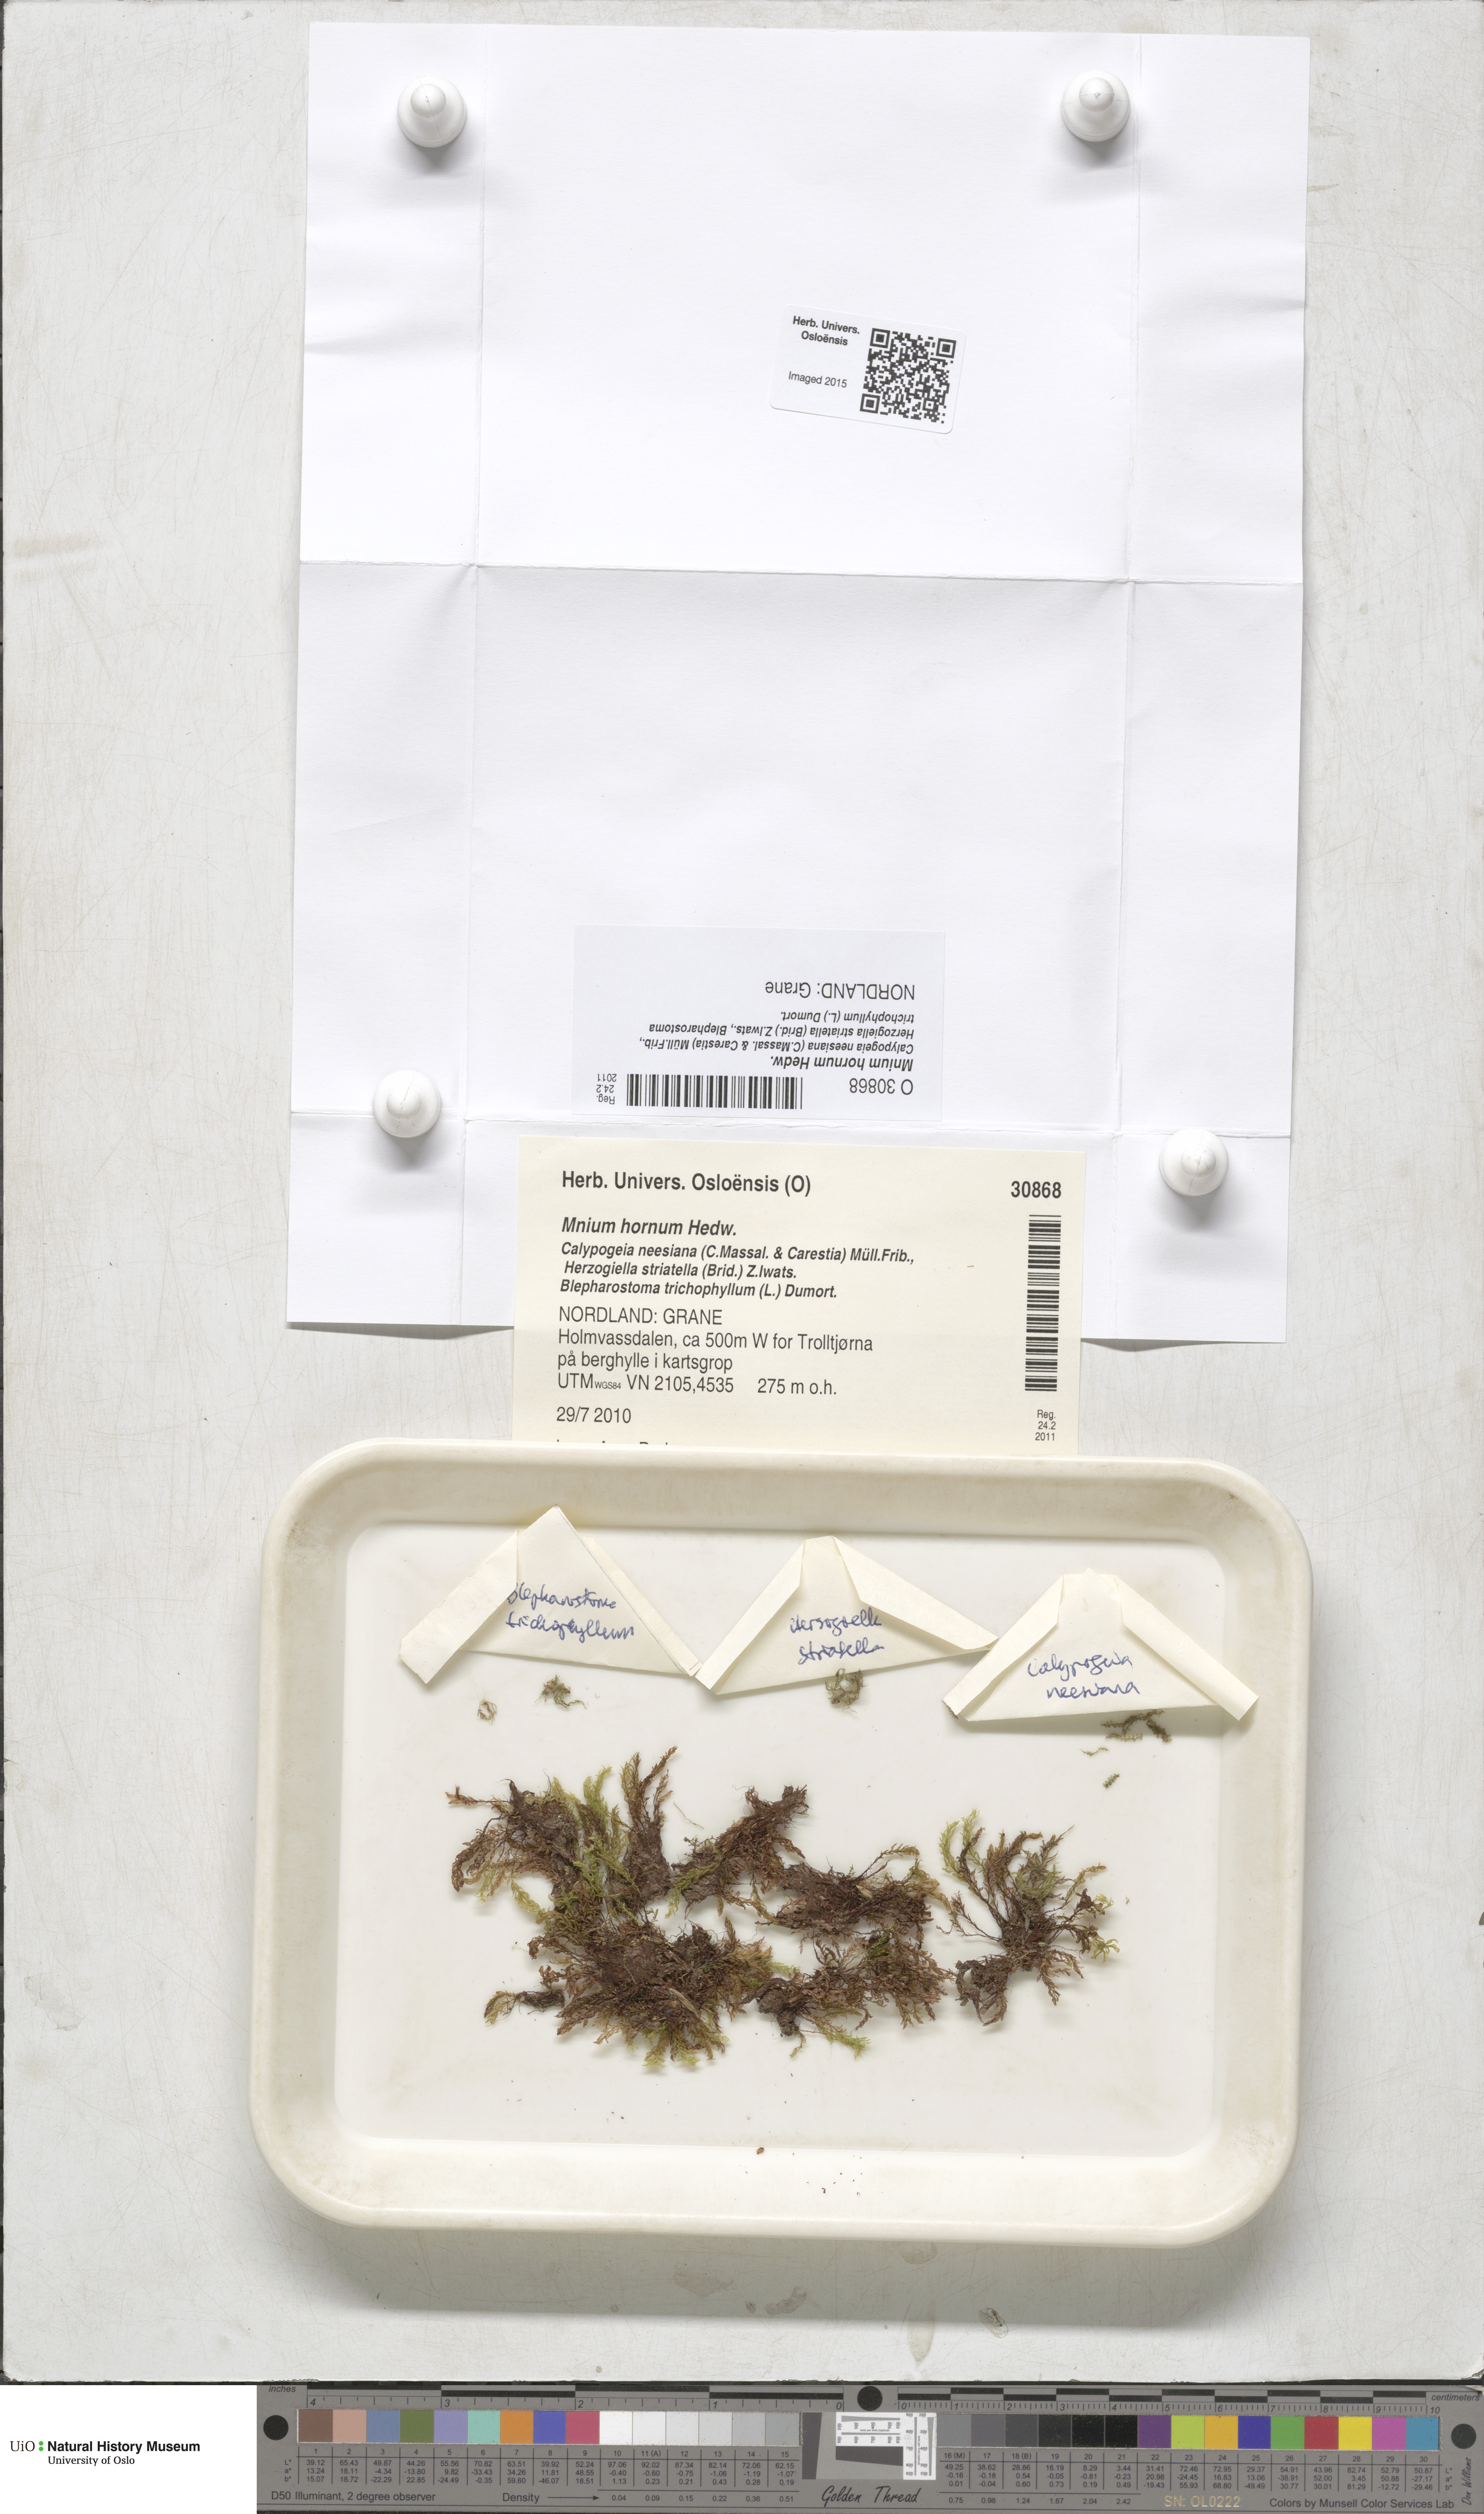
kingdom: Plantae
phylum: Bryophyta
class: Bryopsida
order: Bryales
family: Mniaceae
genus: Mnium
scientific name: Mnium hornum
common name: Swan's-neck leafy moss
